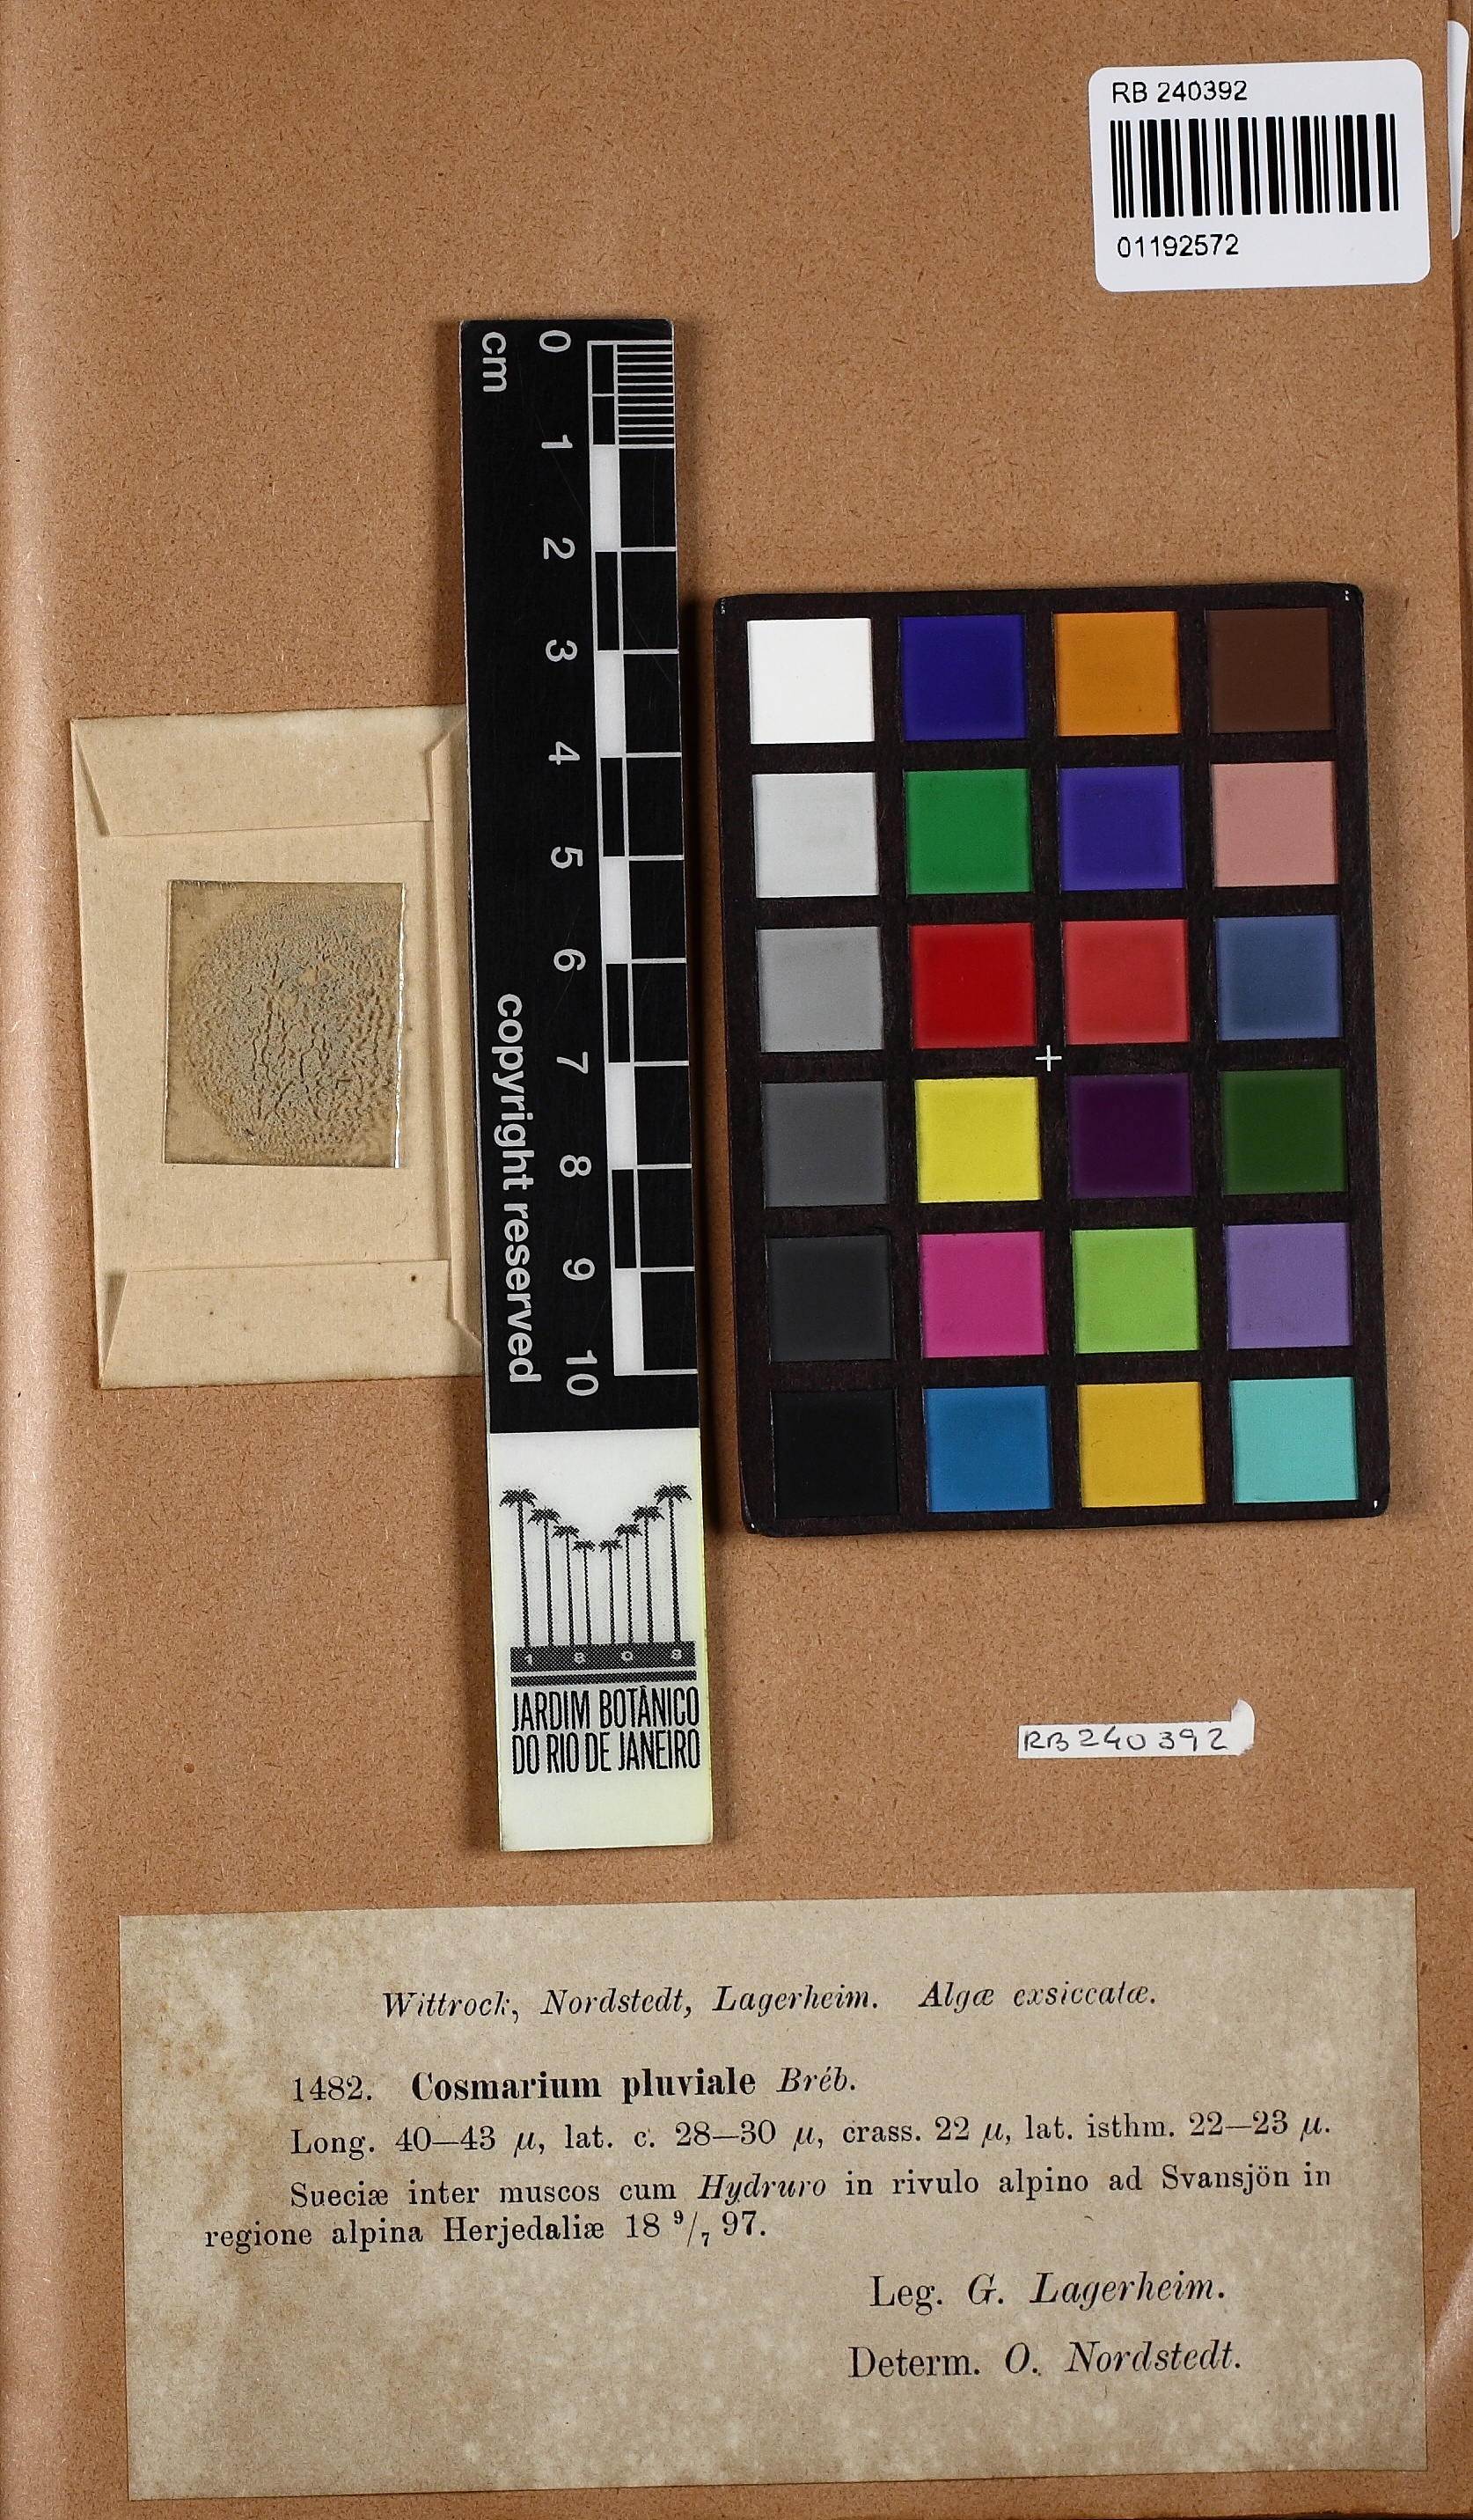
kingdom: Plantae
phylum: Charophyta
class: Conjugatophyceae
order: Desmidiales
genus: Cosmarium
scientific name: Cosmarium pluviale
